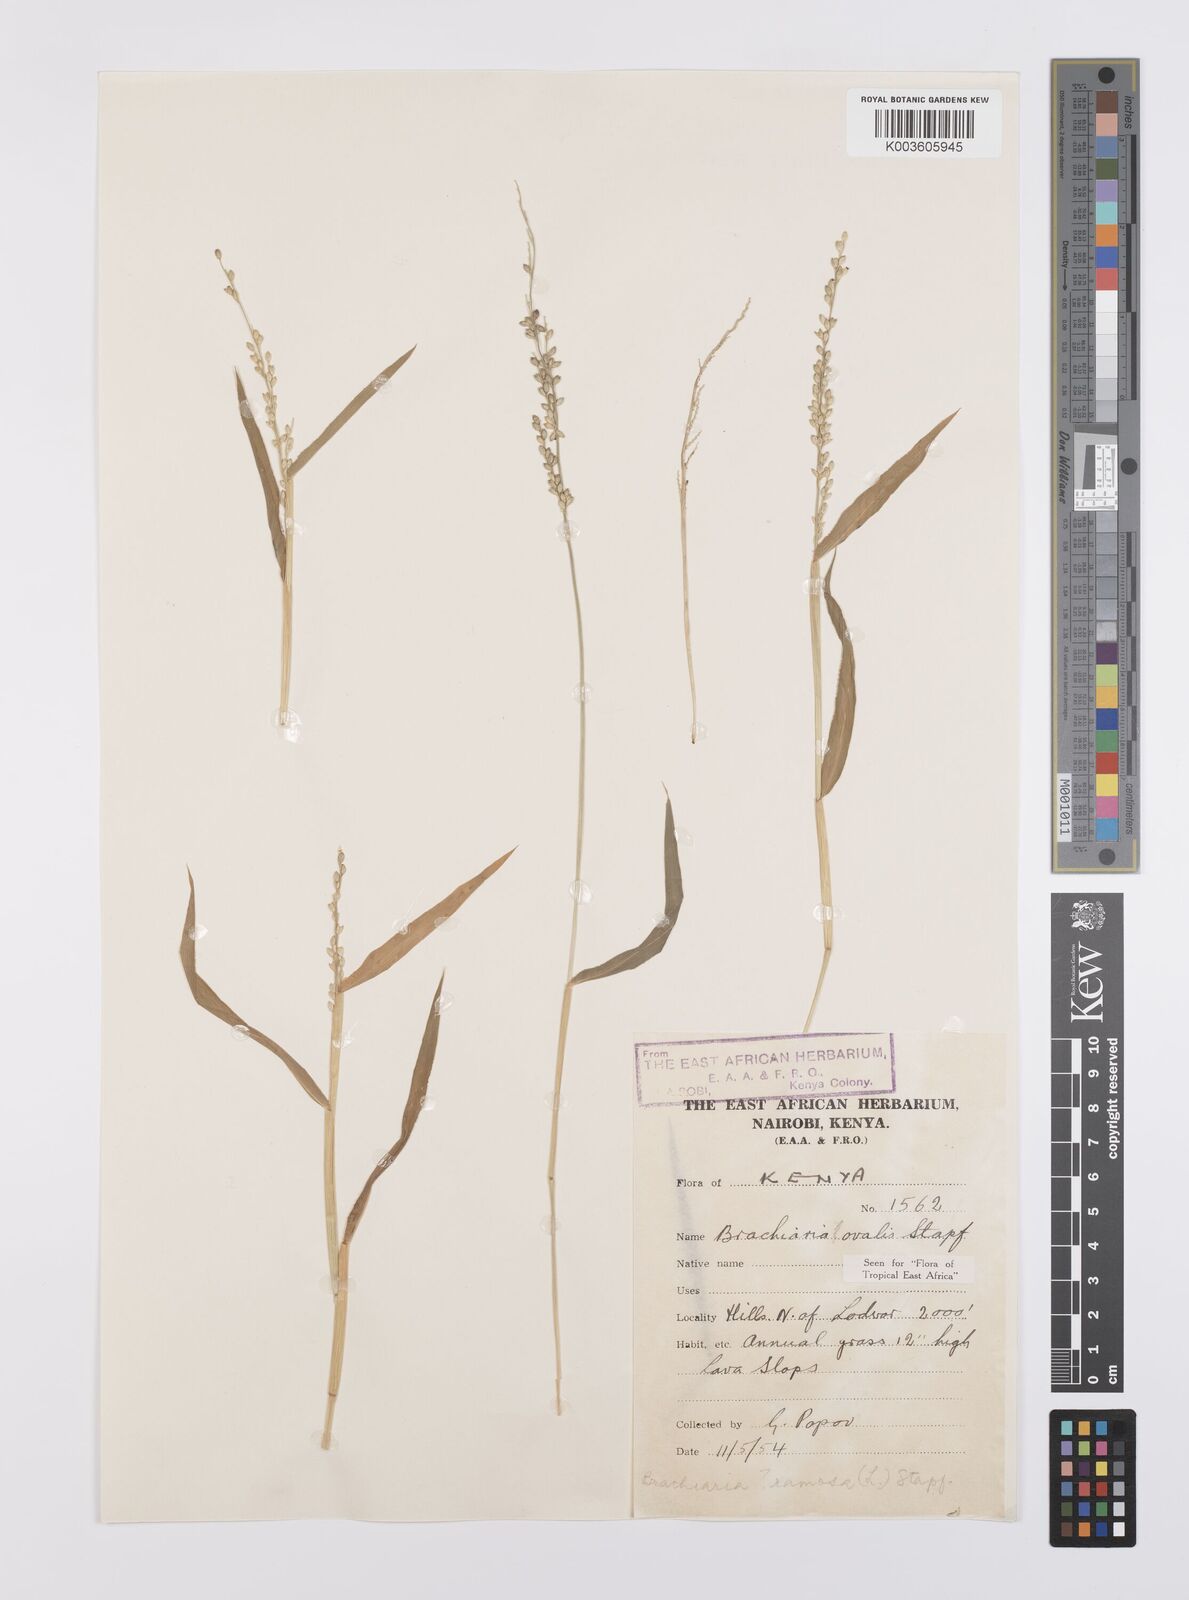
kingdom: Plantae
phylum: Tracheophyta
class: Liliopsida
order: Poales
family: Poaceae
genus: Urochloa
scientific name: Urochloa ovalis
